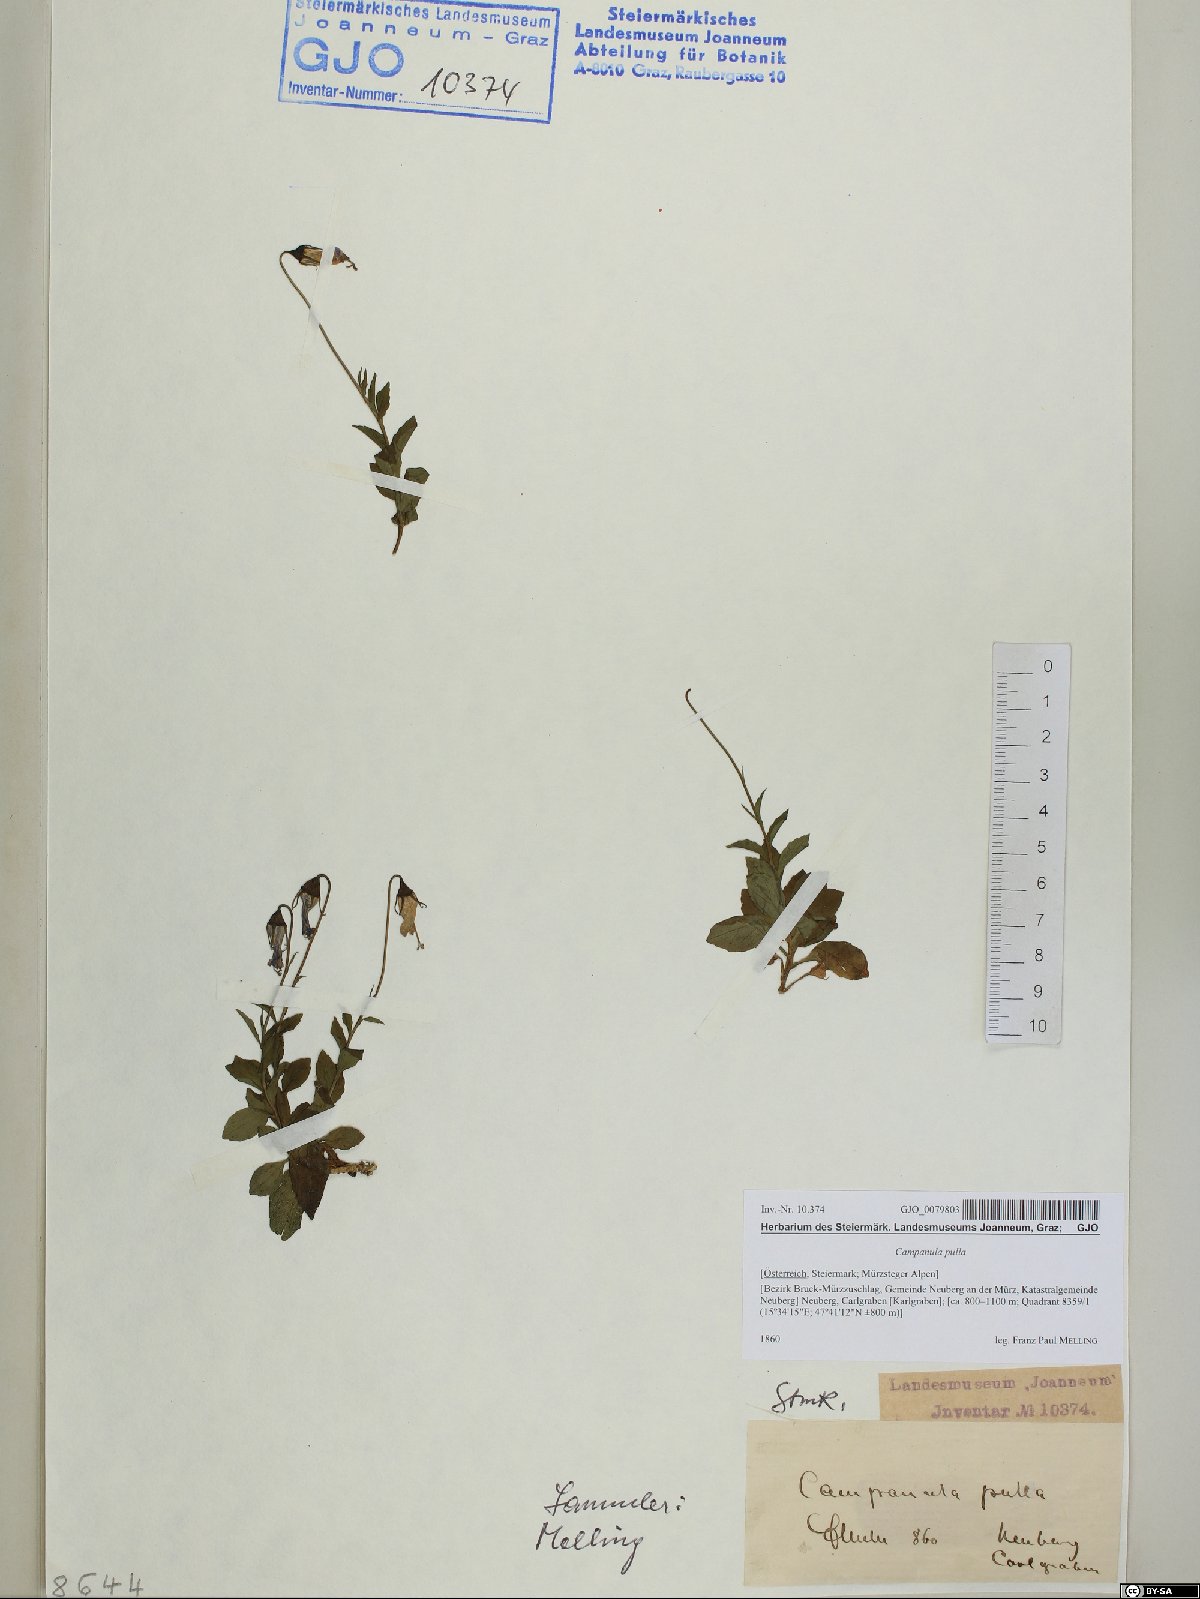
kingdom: Plantae
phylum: Tracheophyta
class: Magnoliopsida
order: Asterales
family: Campanulaceae
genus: Campanula
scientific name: Campanula pulla
